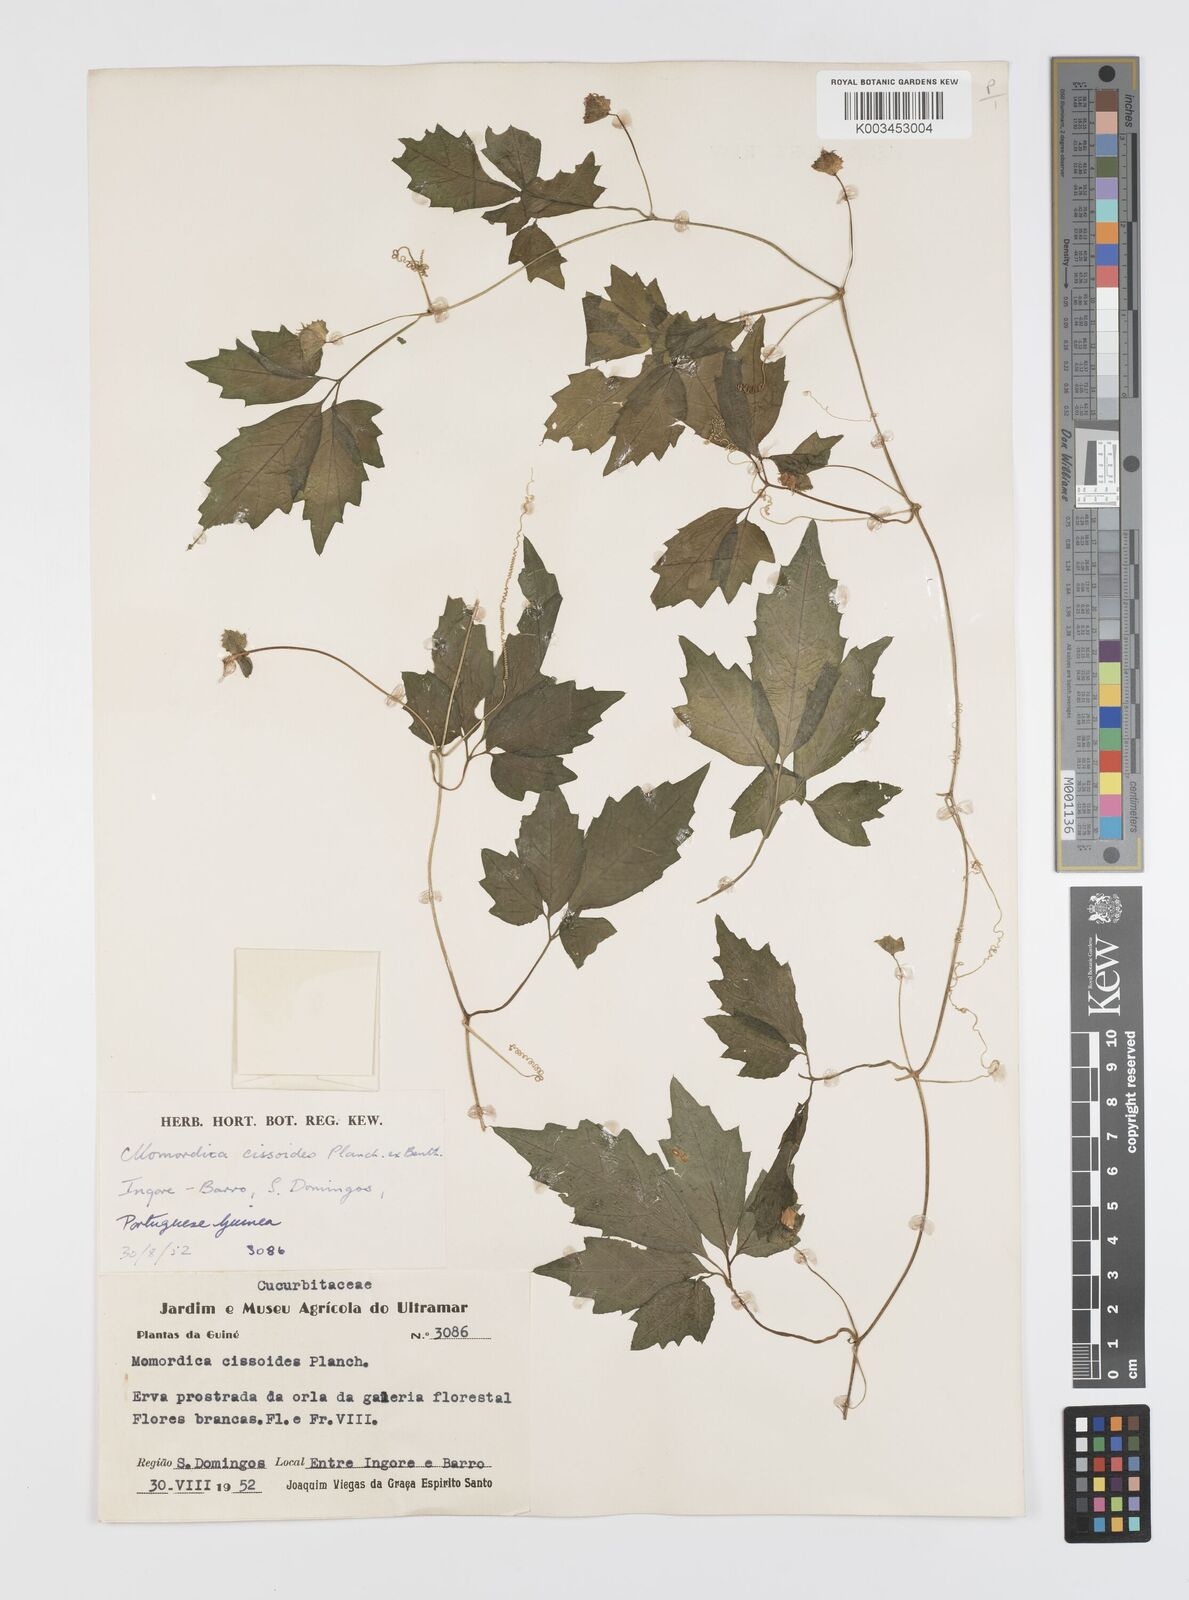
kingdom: Plantae
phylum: Tracheophyta
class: Magnoliopsida
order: Cucurbitales
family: Cucurbitaceae
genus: Momordica
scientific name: Momordica cissoides
